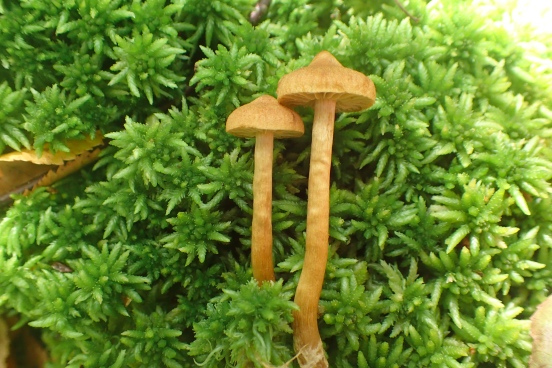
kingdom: Fungi
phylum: Basidiomycota
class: Agaricomycetes
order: Agaricales
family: Cortinariaceae
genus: Cortinarius
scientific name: Cortinarius
